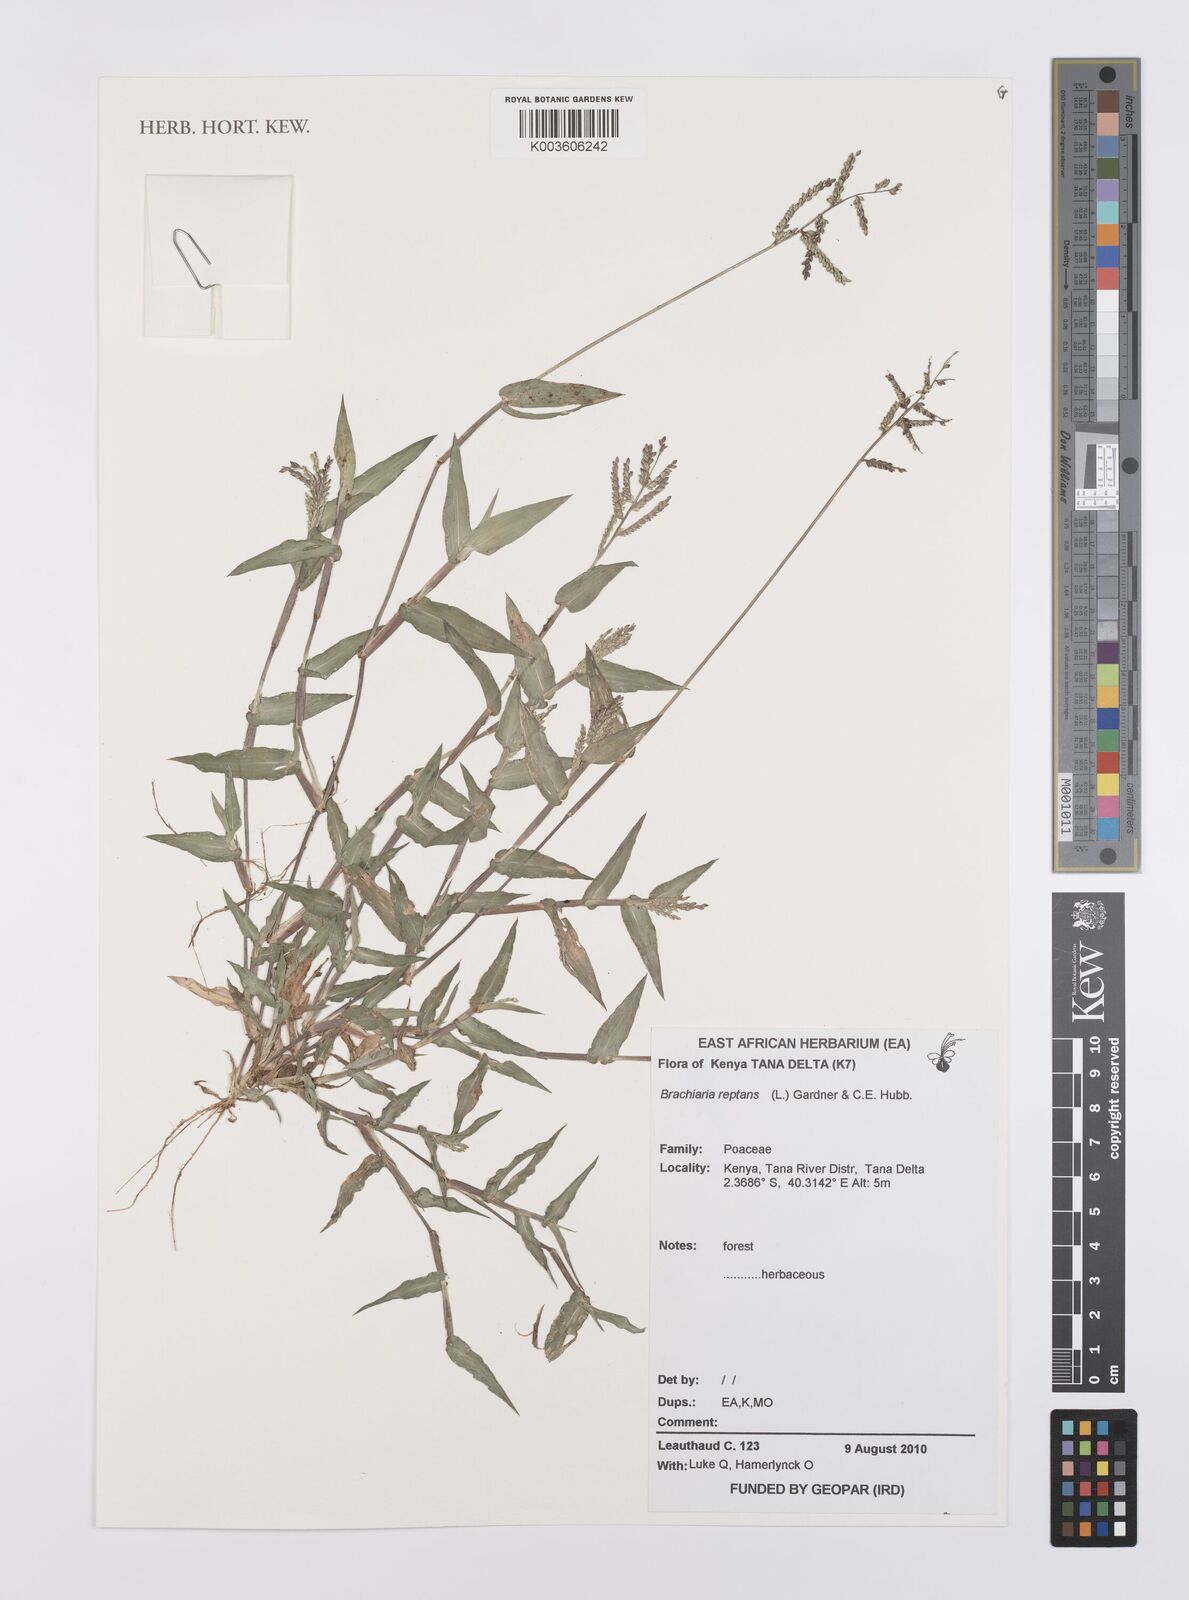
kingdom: Plantae
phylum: Tracheophyta
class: Liliopsida
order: Poales
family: Poaceae
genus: Urochloa
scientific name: Urochloa reptans
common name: Sprawling signalgrass
